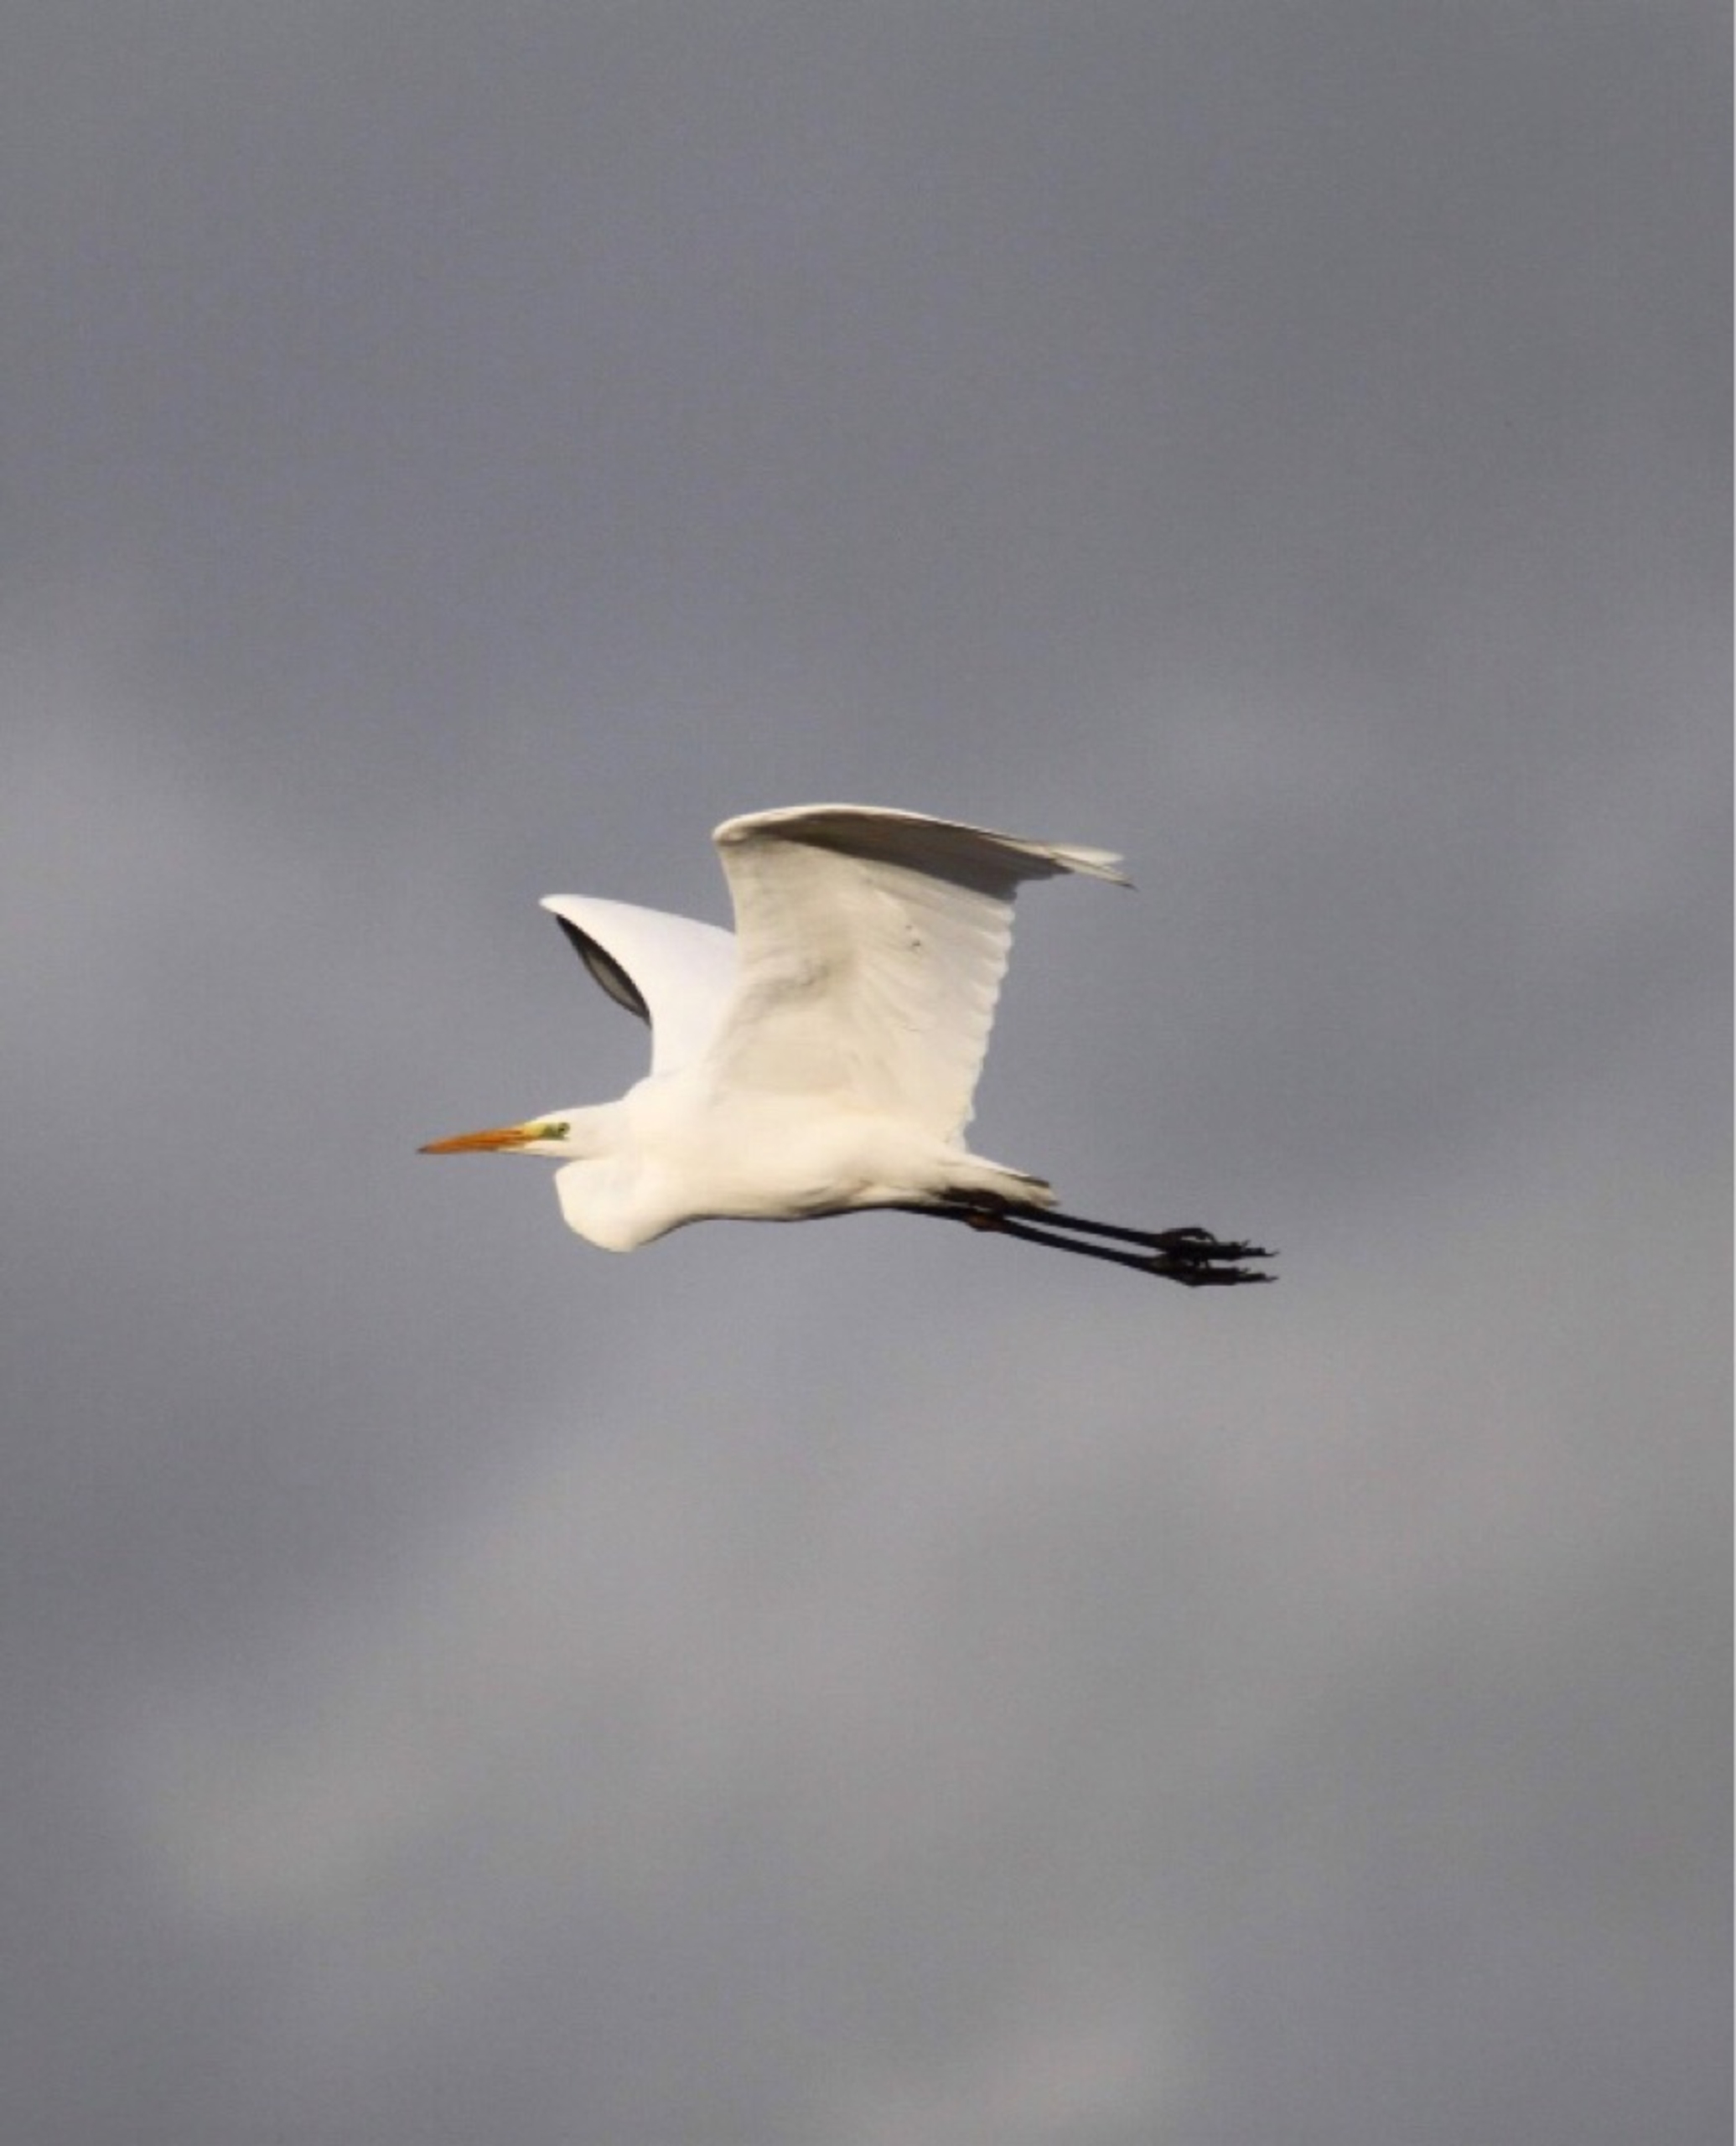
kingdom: Animalia
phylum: Chordata
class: Aves
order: Pelecaniformes
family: Ardeidae
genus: Ardea
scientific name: Ardea alba
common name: Sølvhejre
